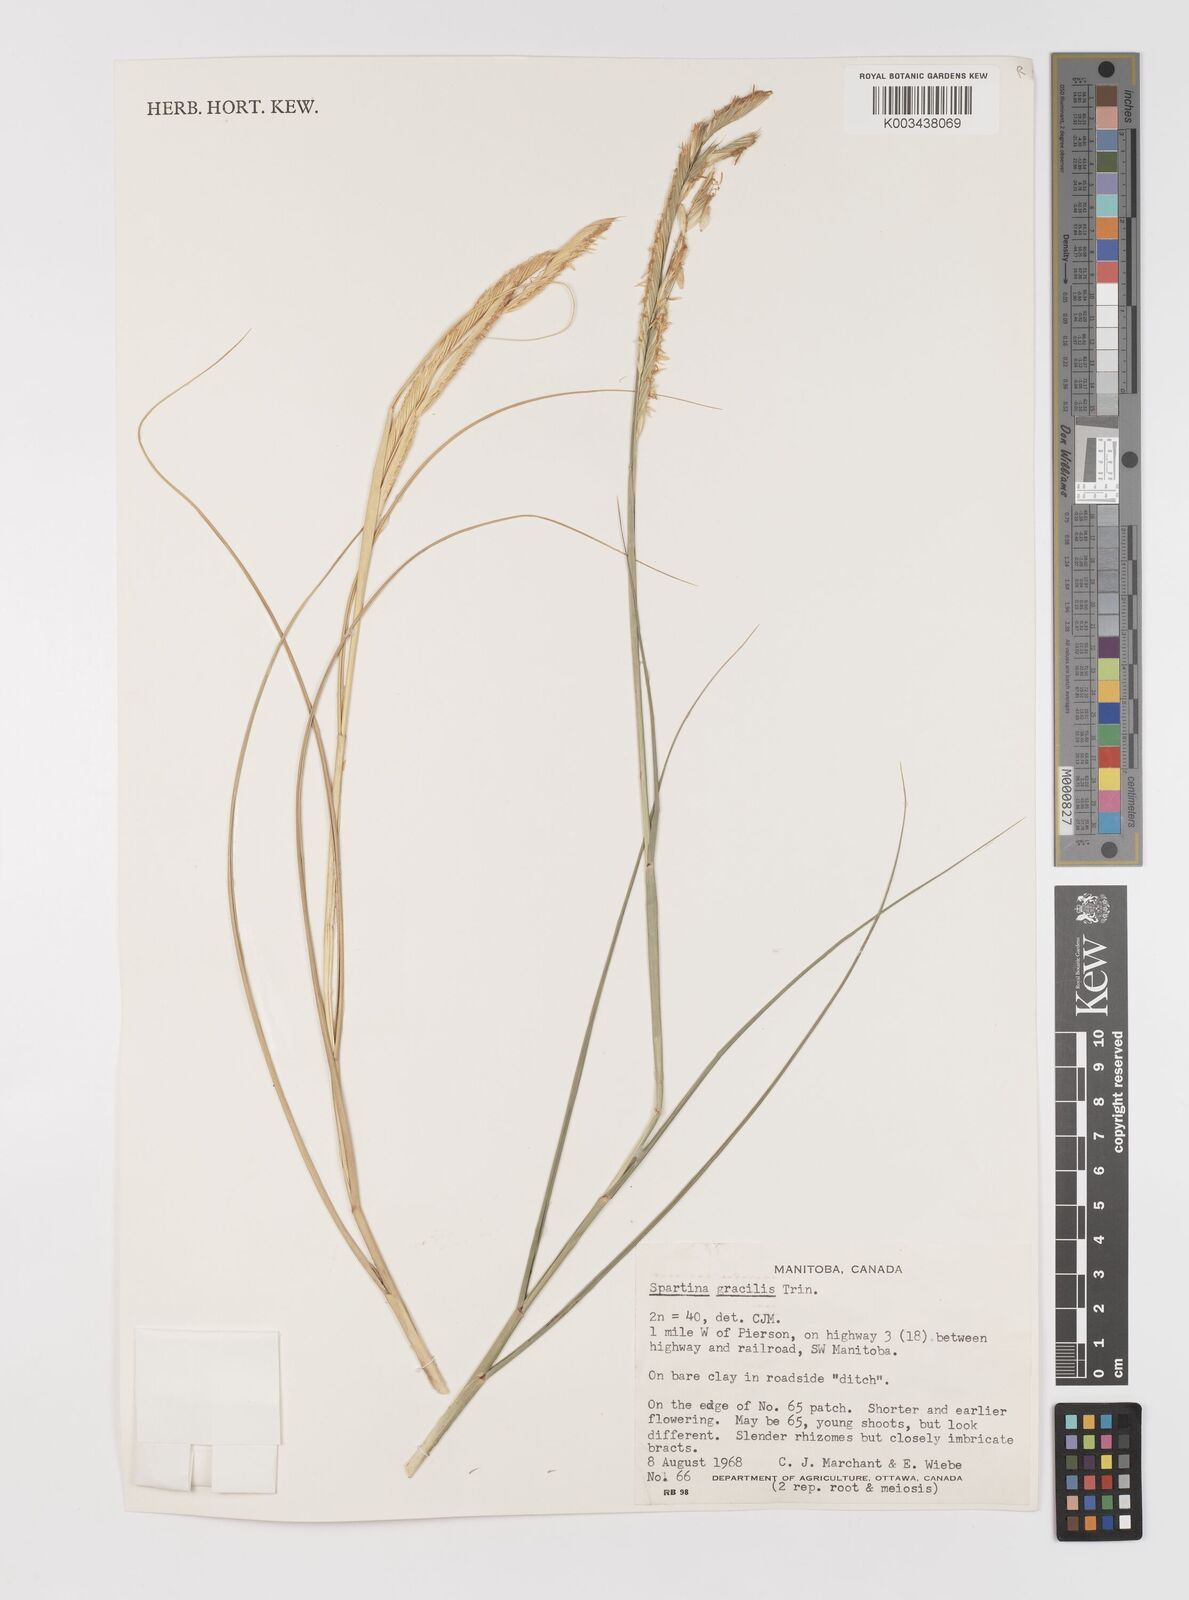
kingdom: Plantae
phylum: Tracheophyta
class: Liliopsida
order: Poales
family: Poaceae
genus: Sporobolus
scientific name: Sporobolus hookerianus
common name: Alkali cordgrass
